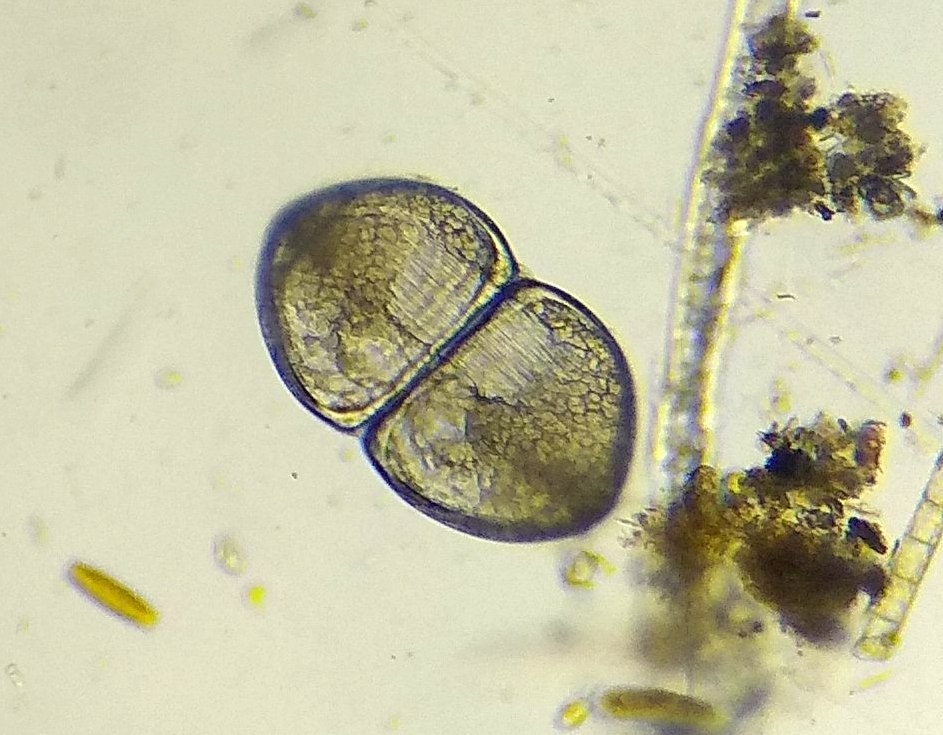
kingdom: Animalia
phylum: Mollusca
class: Bivalvia
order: Unionida
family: Unionidae
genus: Anodonta
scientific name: Anodonta cygnea
